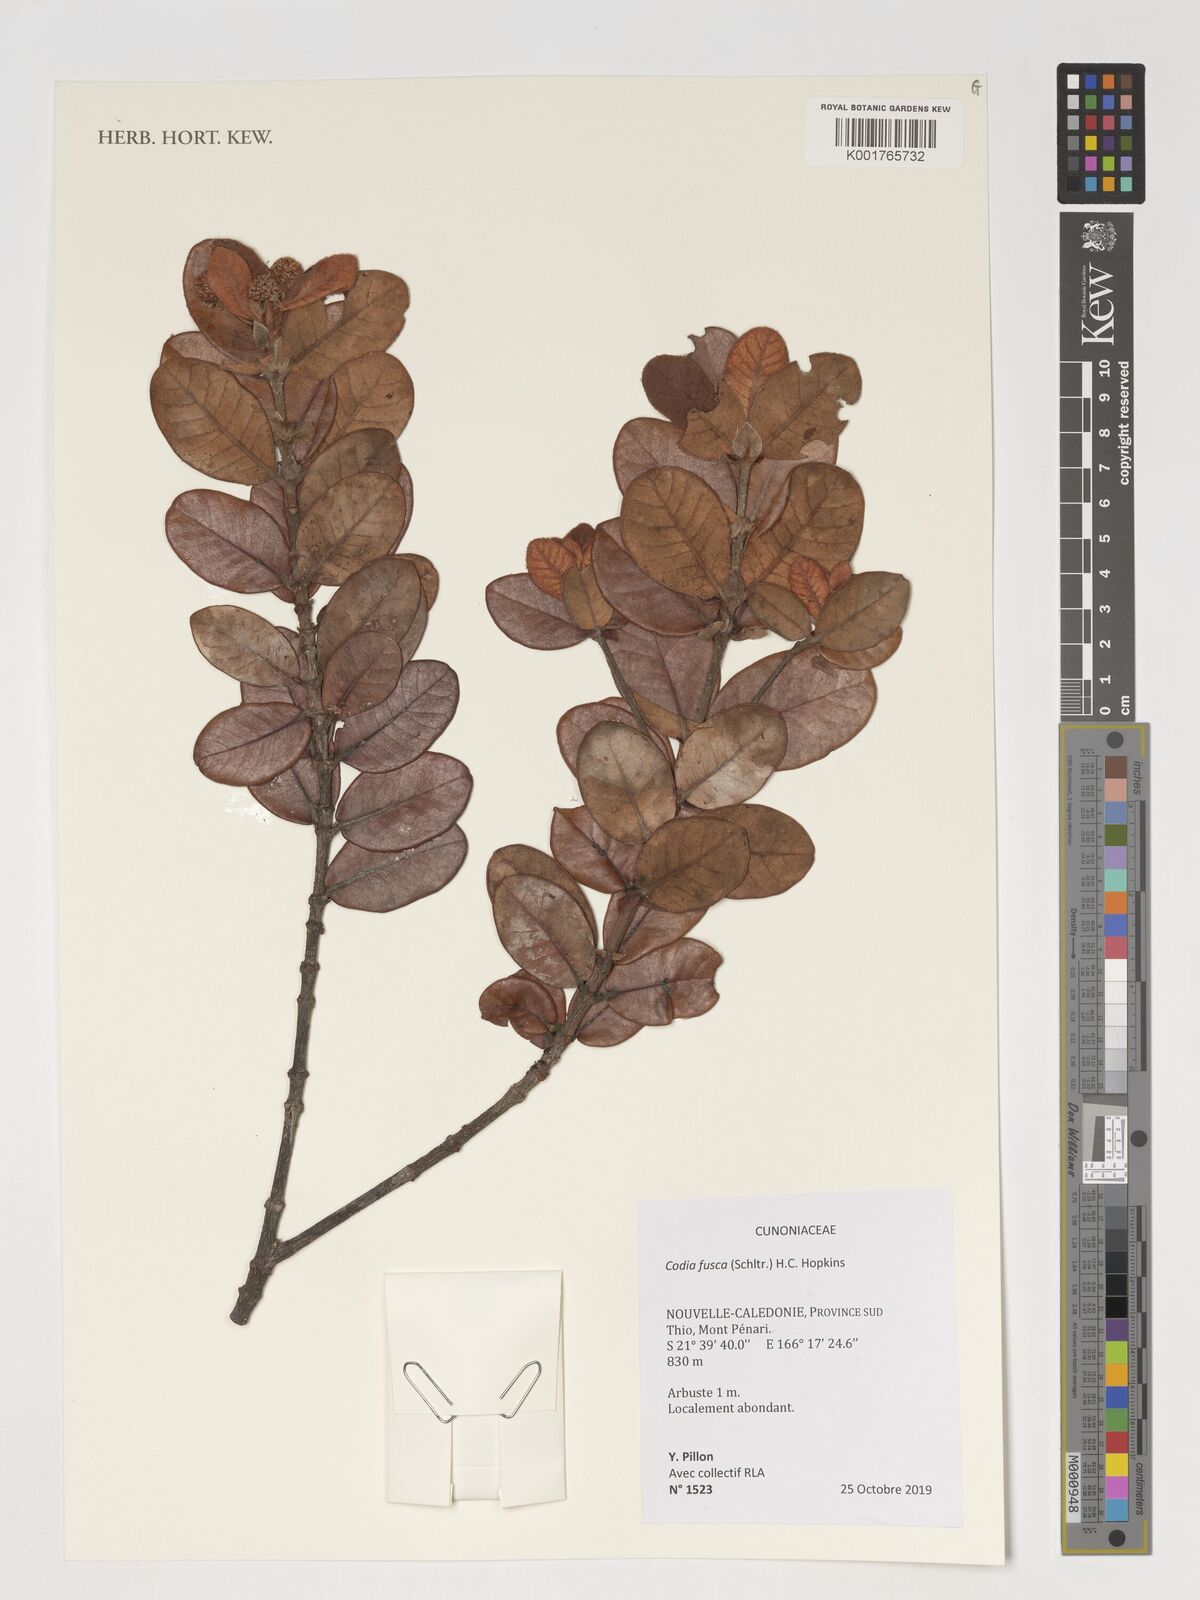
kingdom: Plantae
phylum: Tracheophyta
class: Magnoliopsida
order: Oxalidales
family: Cunoniaceae
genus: Codia
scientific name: Codia fusca
